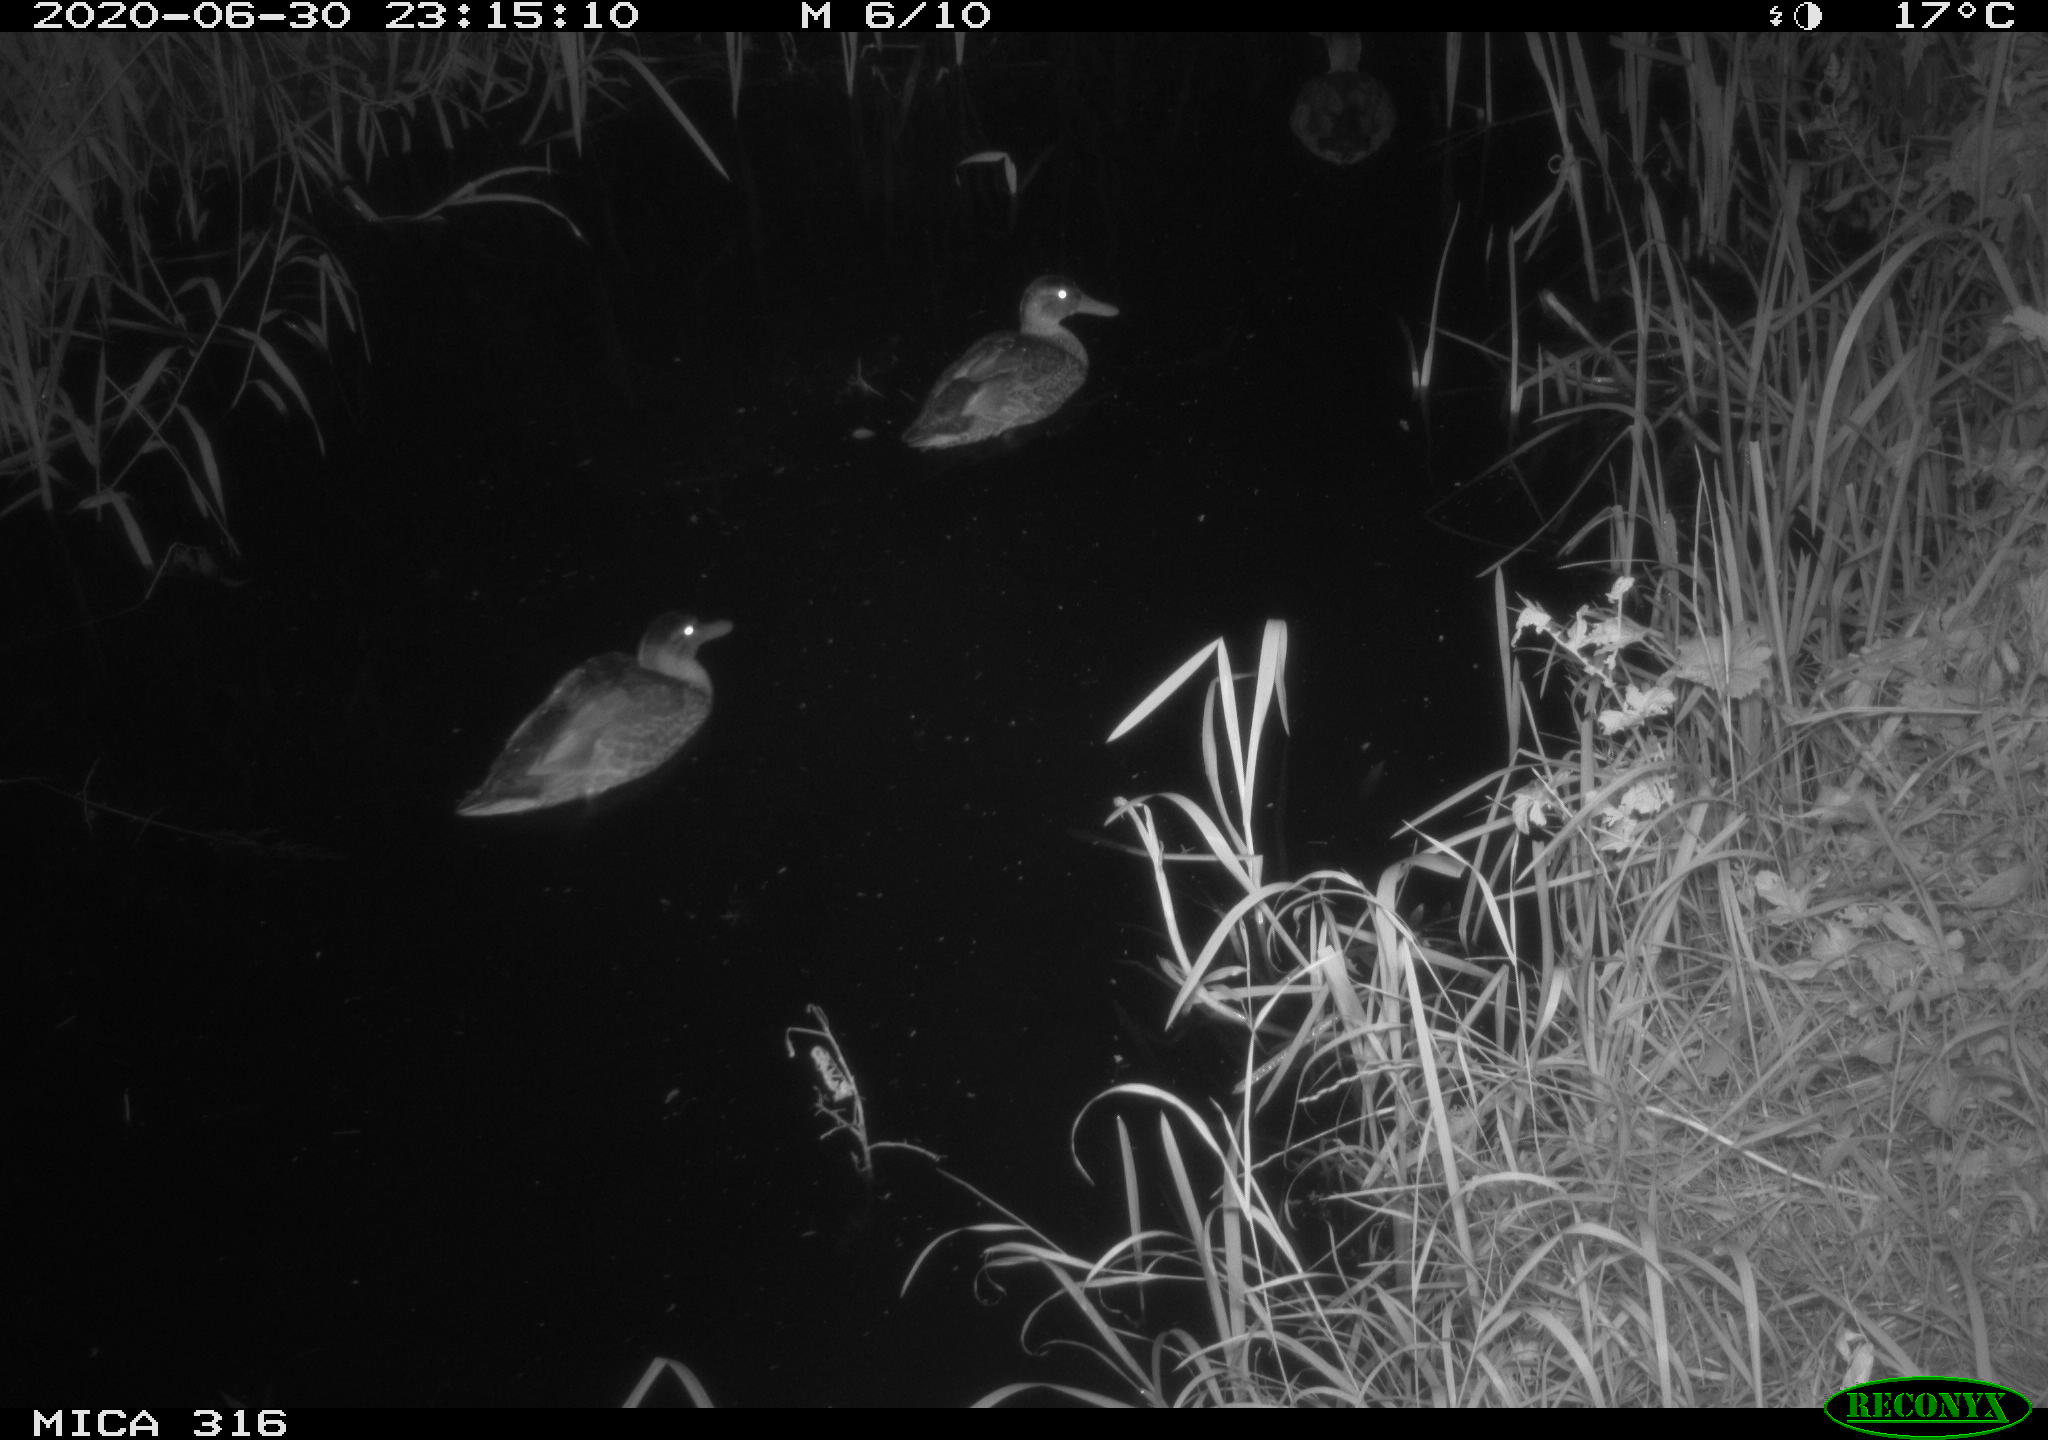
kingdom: Animalia
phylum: Chordata
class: Aves
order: Anseriformes
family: Anatidae
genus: Anas
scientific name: Anas platyrhynchos
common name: Mallard
